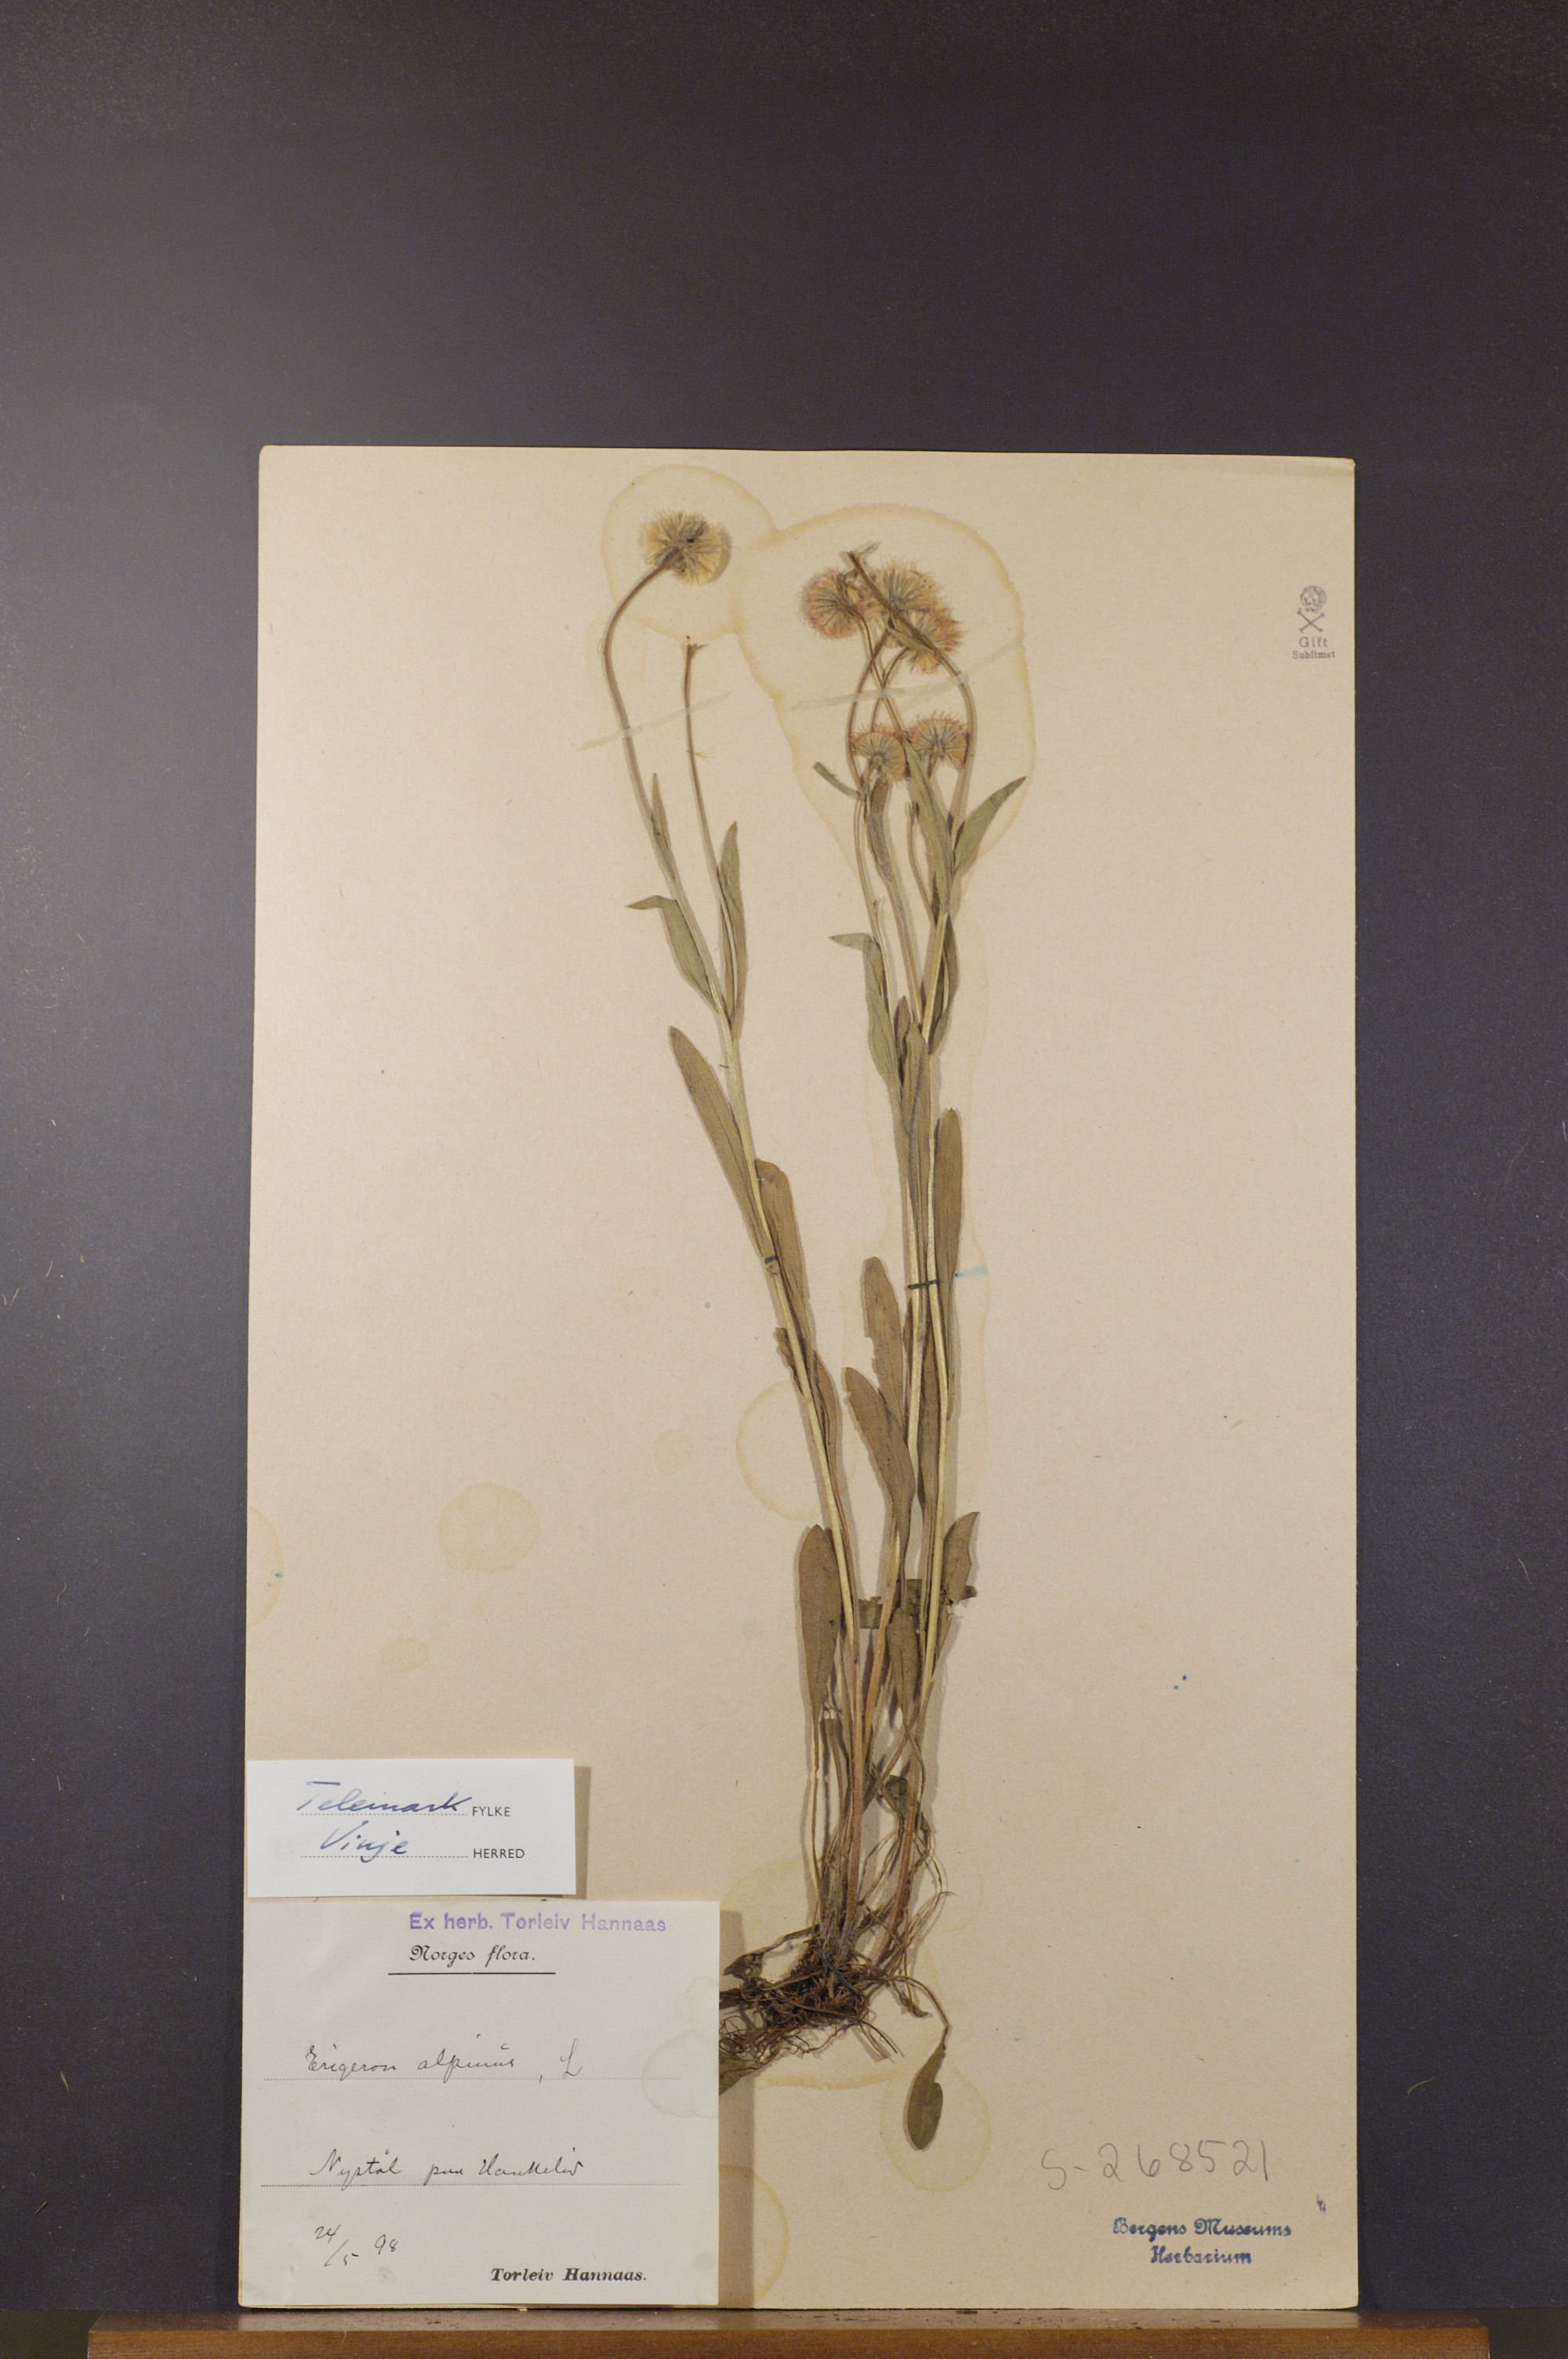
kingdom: Plantae
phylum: Tracheophyta
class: Magnoliopsida
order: Asterales
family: Asteraceae
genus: Erigeron
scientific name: Erigeron borealis
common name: Alpine fleabane
